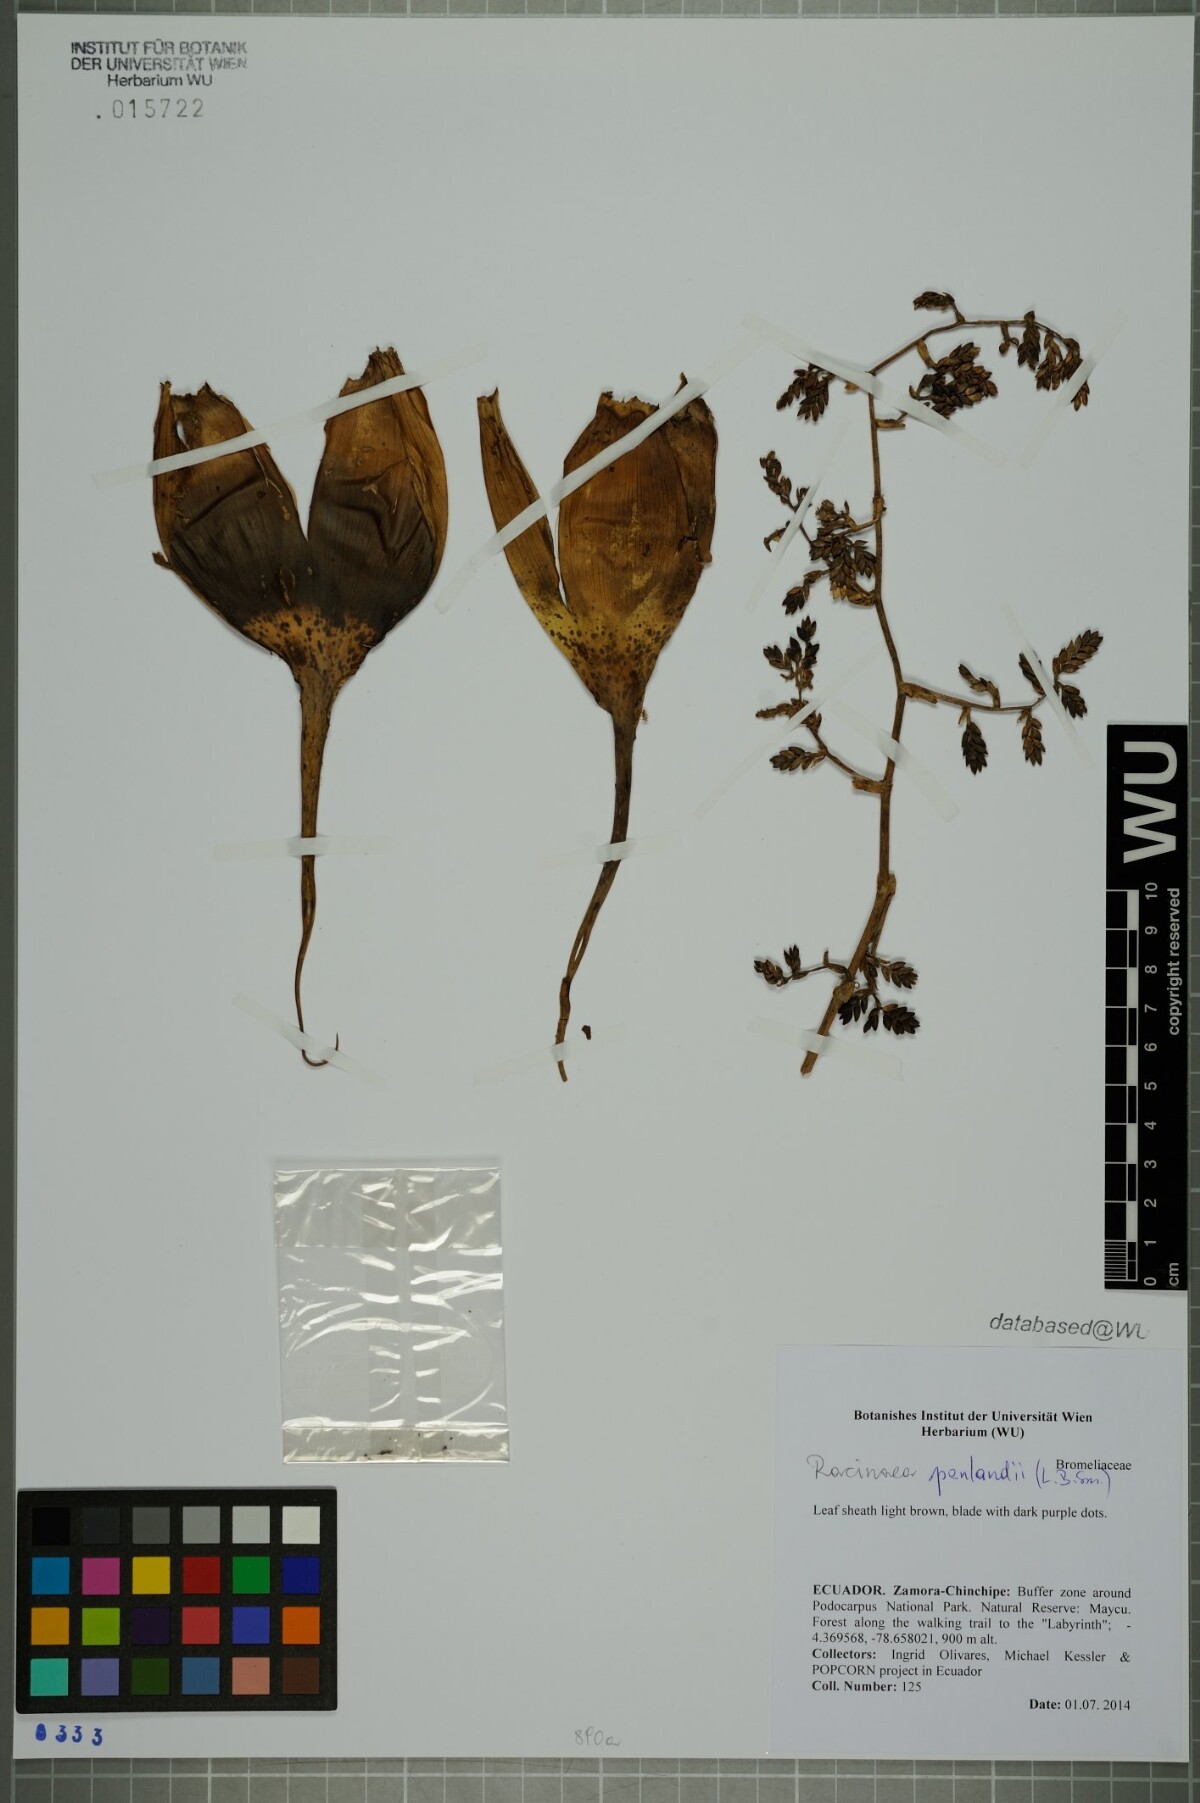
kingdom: Plantae
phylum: Tracheophyta
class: Liliopsida
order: Poales
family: Bromeliaceae
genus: Racinaea
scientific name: Racinaea penlandii
